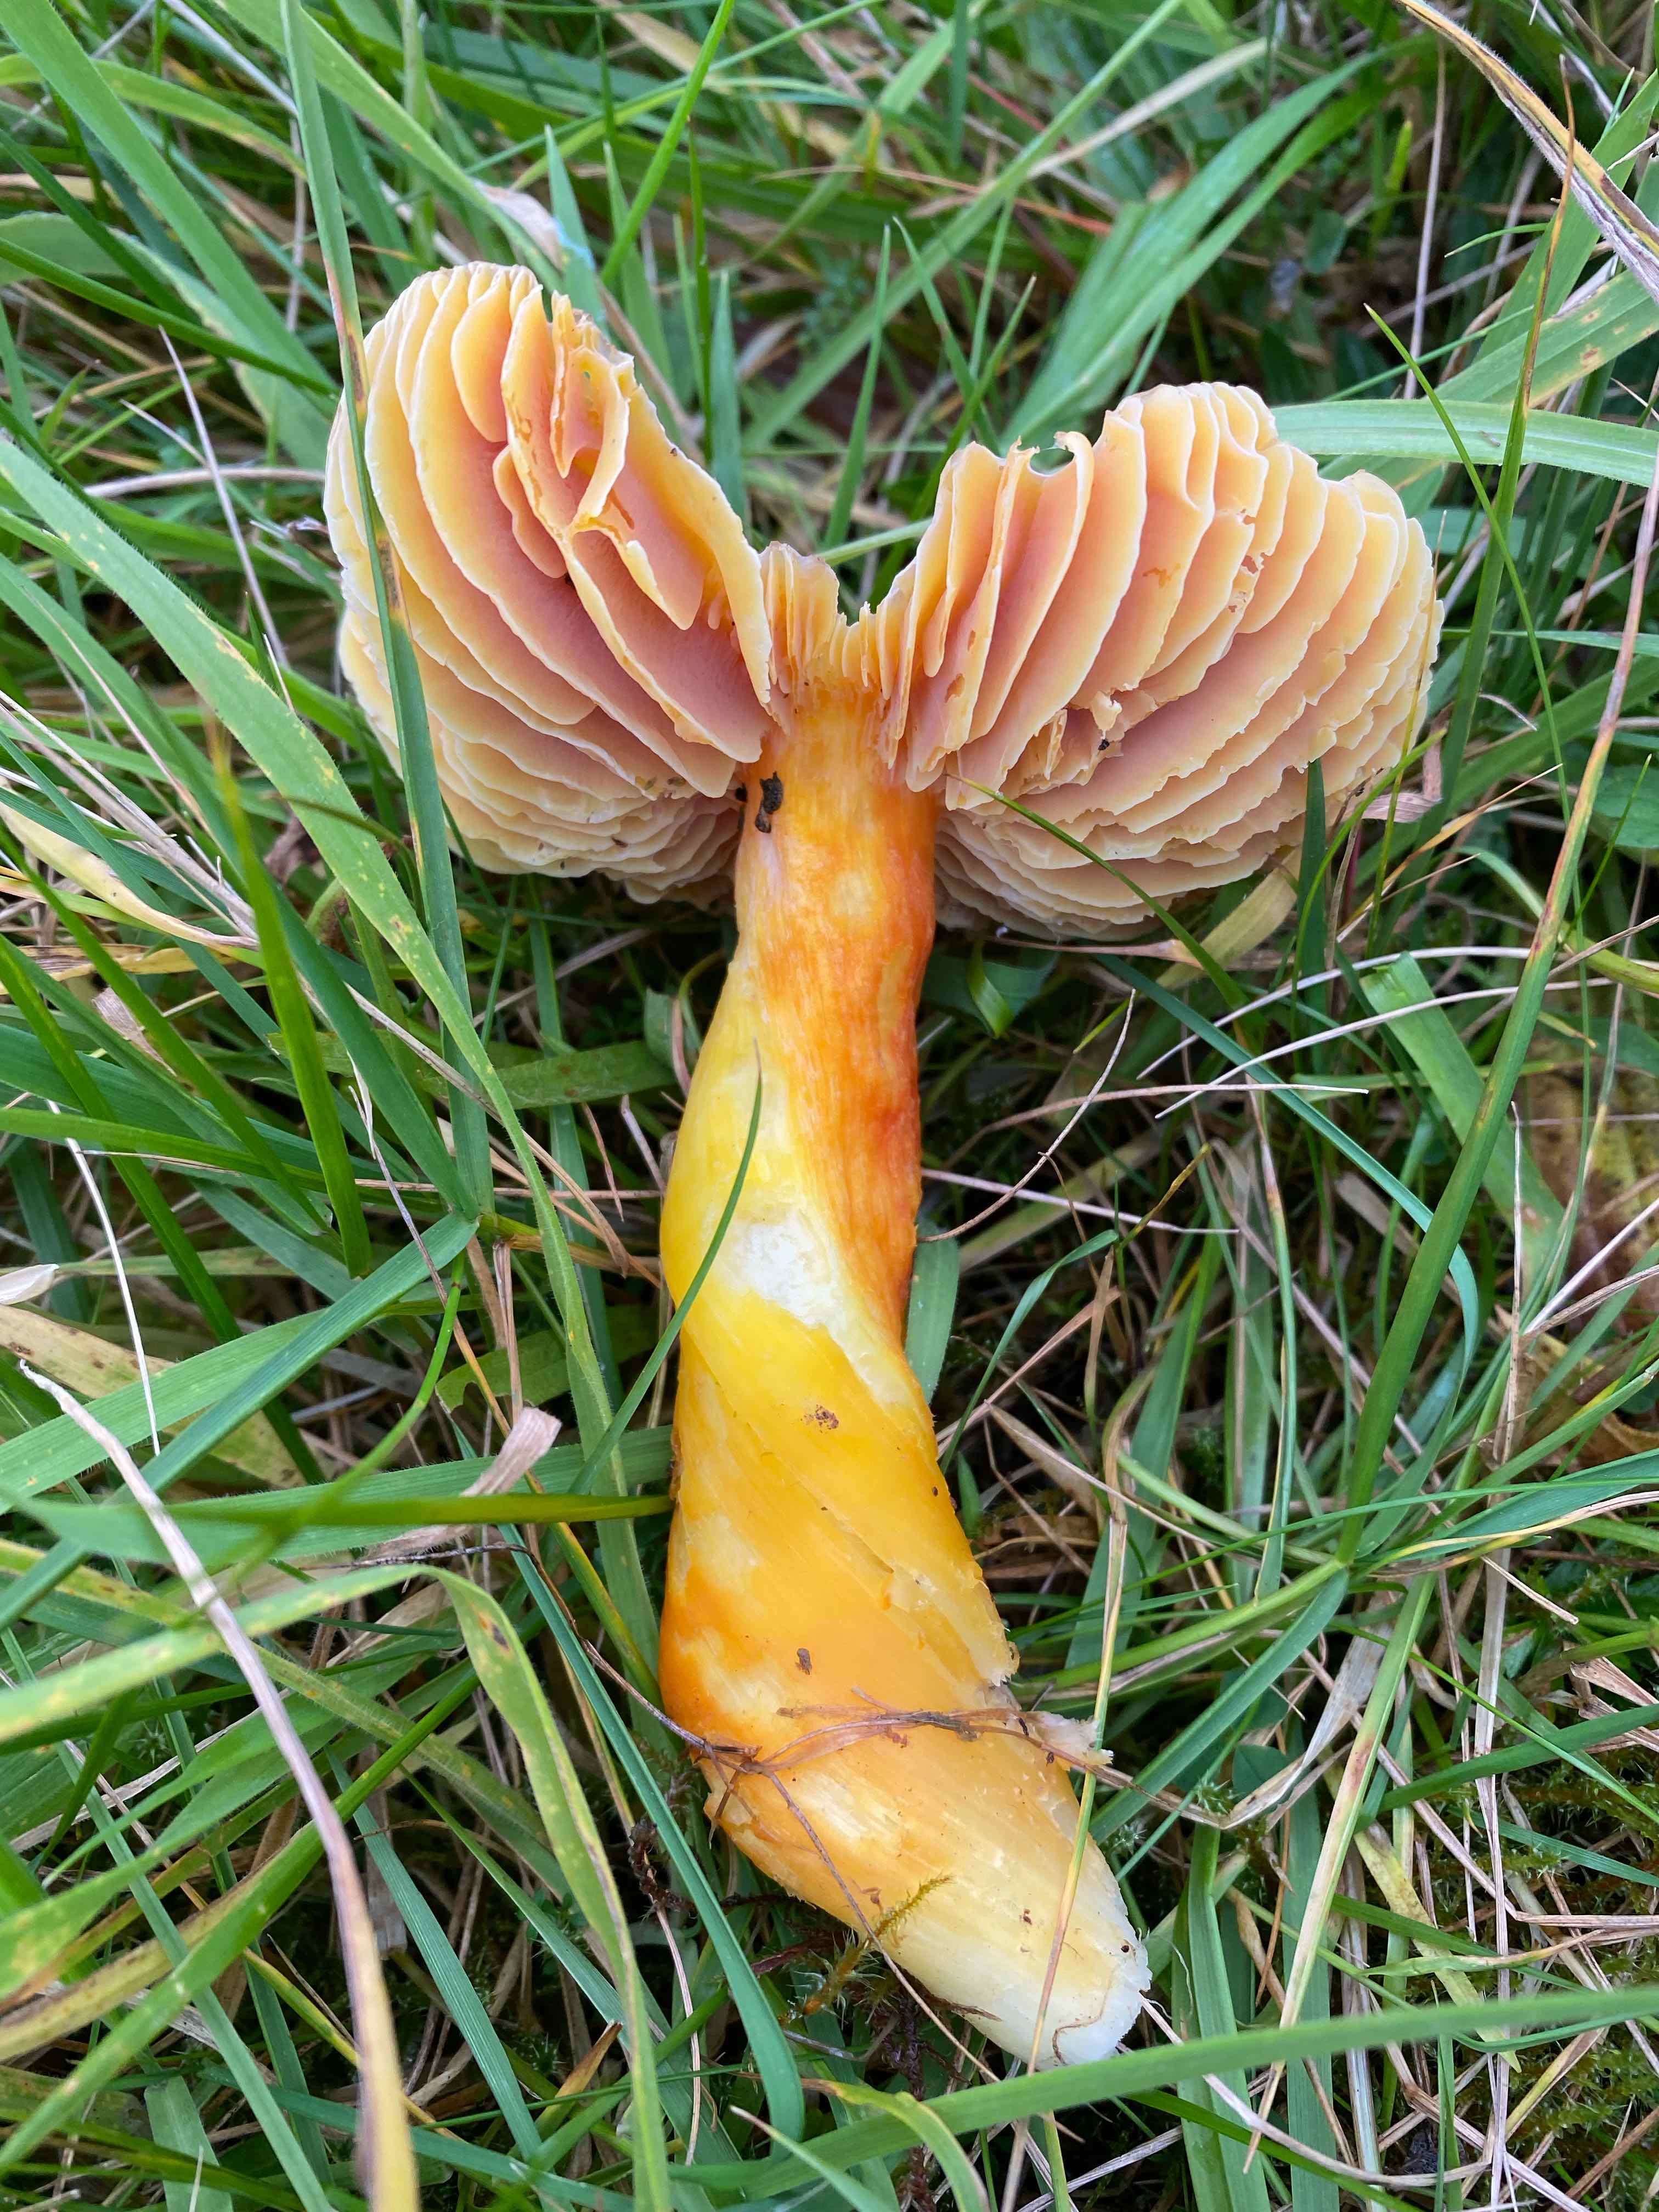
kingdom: Fungi
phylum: Basidiomycota
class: Agaricomycetes
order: Agaricales
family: Hygrophoraceae
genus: Hygrocybe
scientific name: Hygrocybe punicea
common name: skarlagen-vokshat
